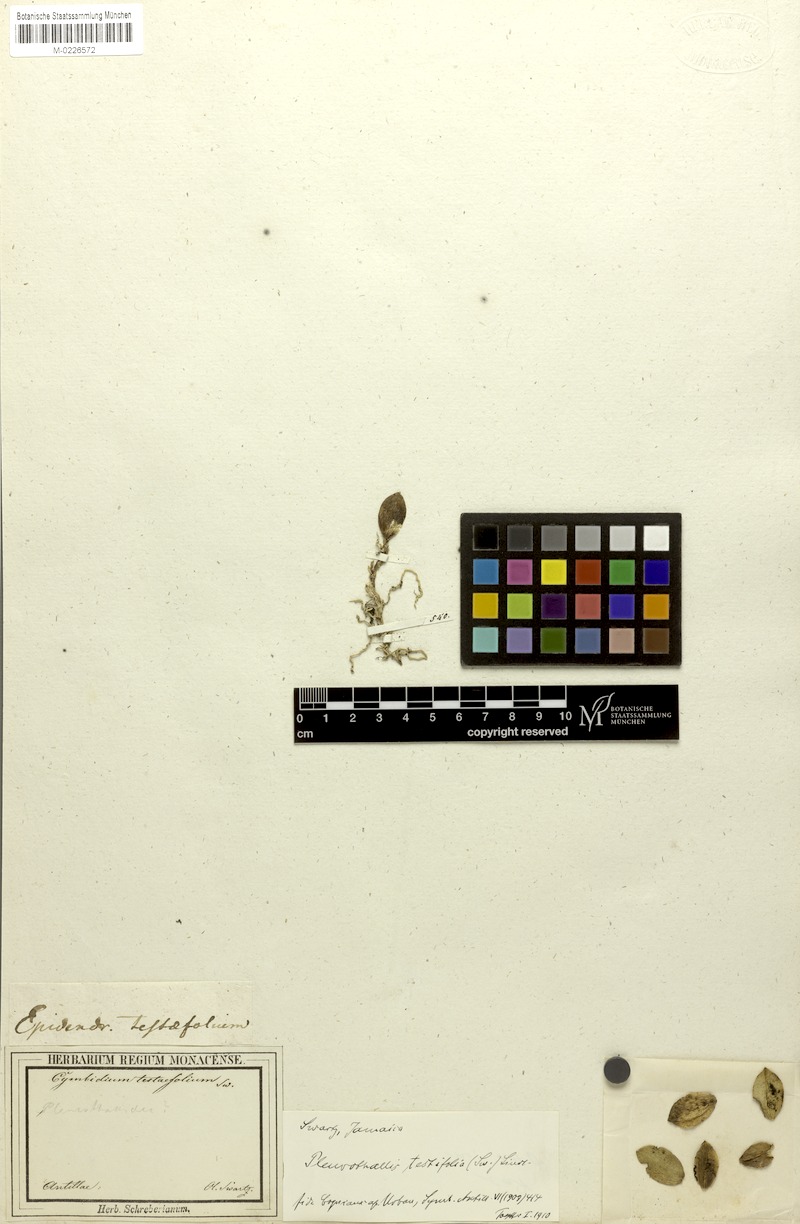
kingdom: Plantae
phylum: Tracheophyta
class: Liliopsida
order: Asparagales
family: Orchidaceae
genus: Acianthera
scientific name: Acianthera testifolia
